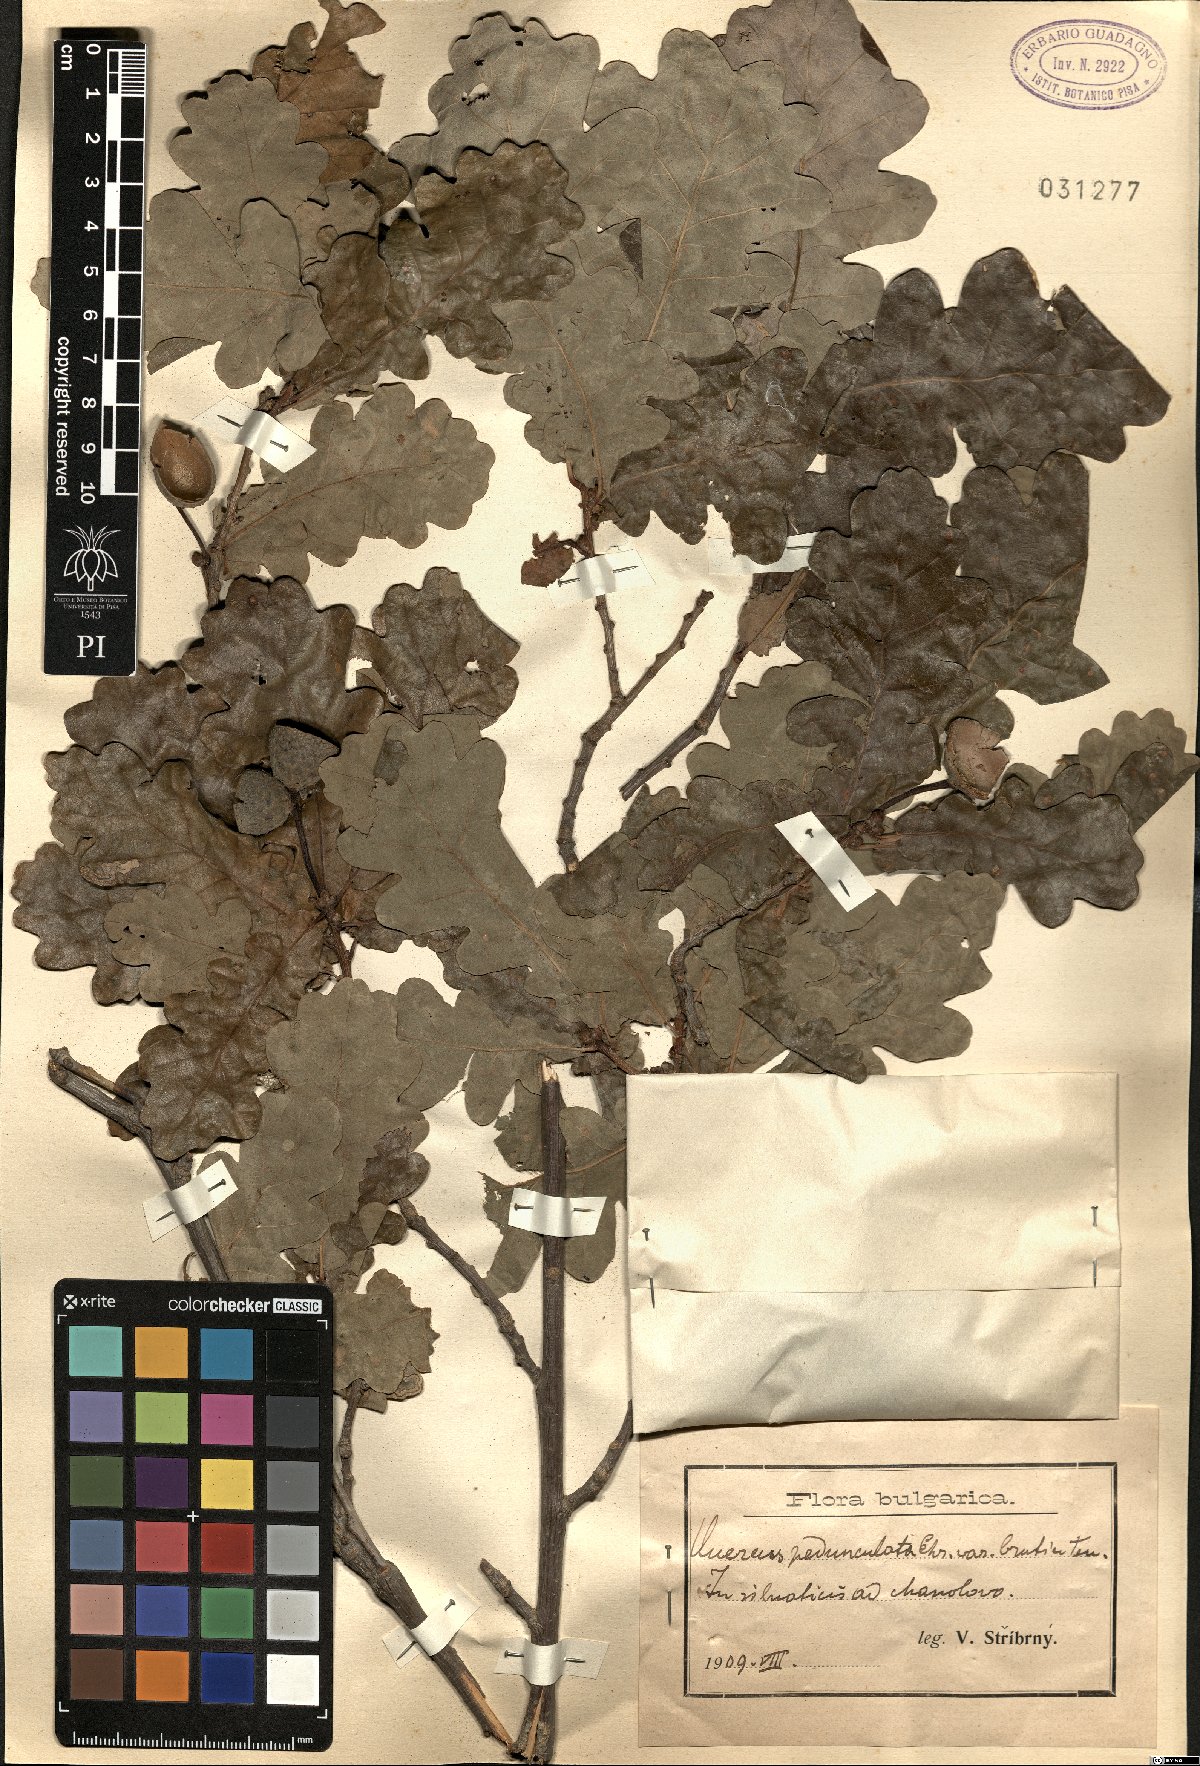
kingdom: Plantae
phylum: Tracheophyta
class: Magnoliopsida
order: Fagales
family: Fagaceae
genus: Quercus
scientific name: Quercus robur
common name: Pedunculate oak
